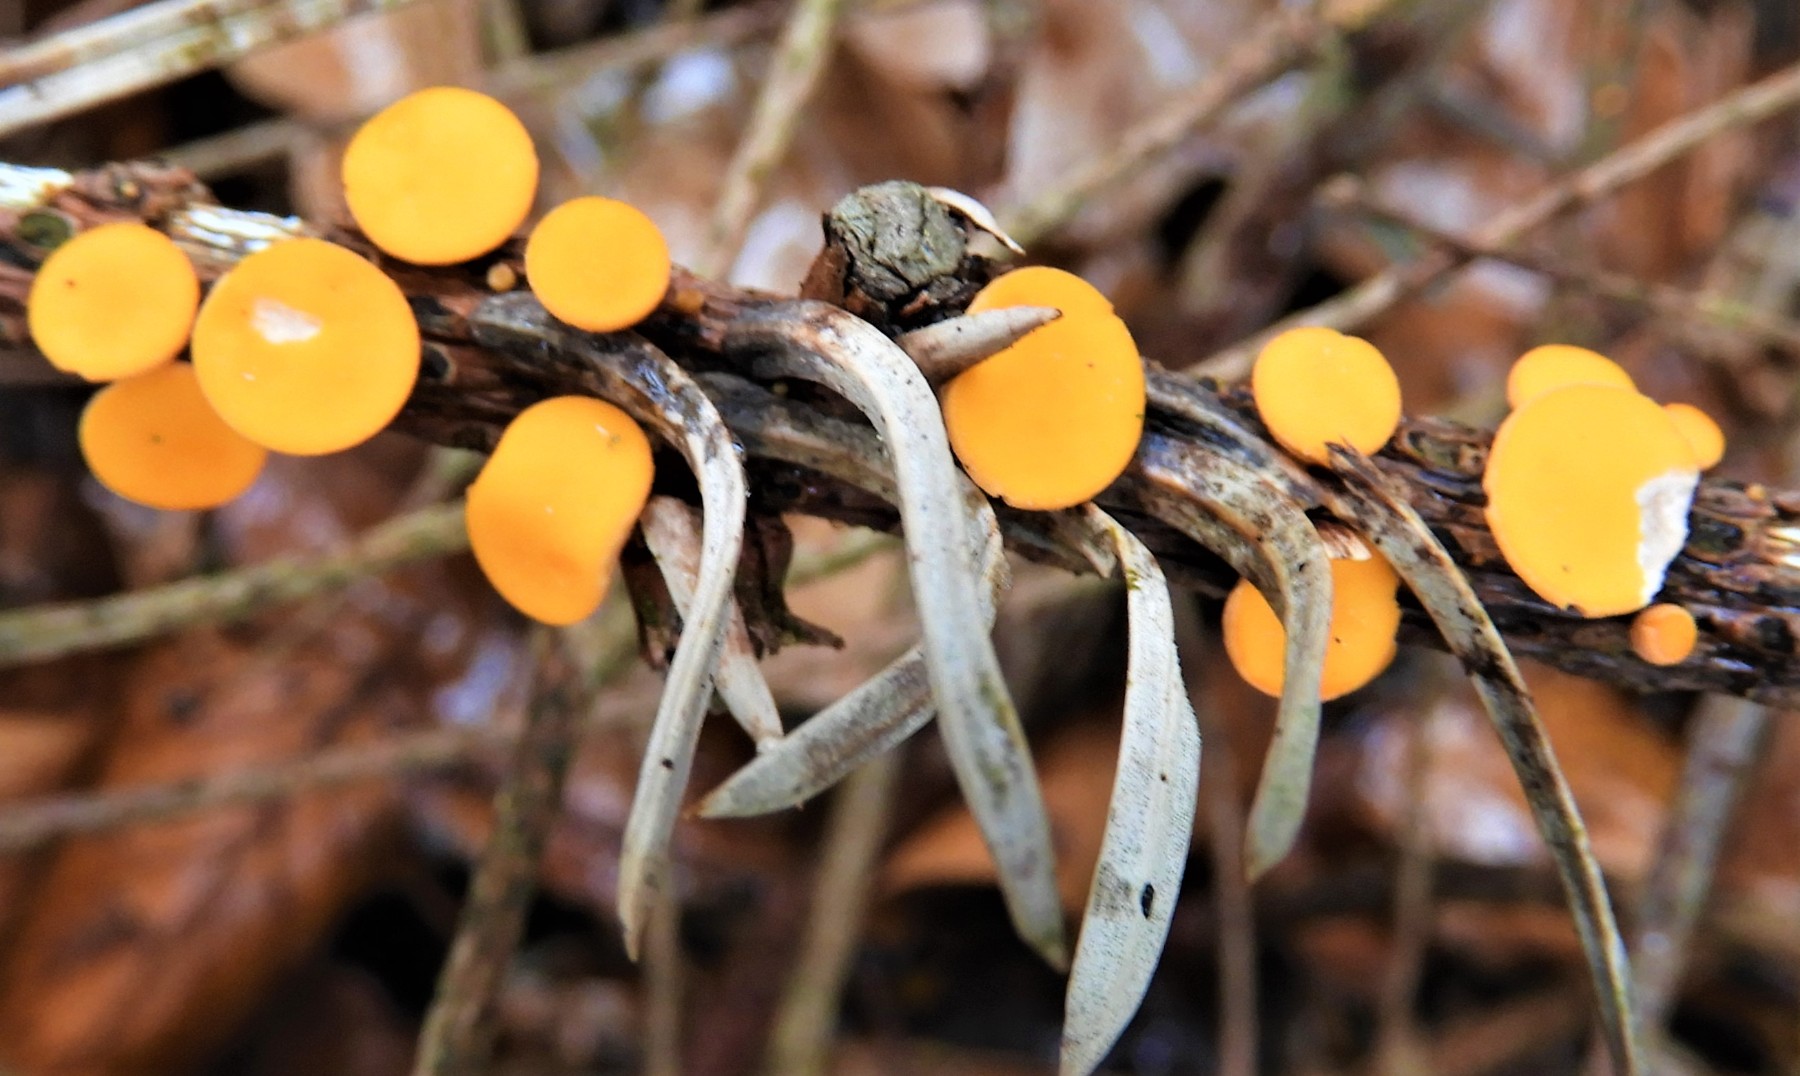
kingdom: Fungi
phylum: Ascomycota
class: Pezizomycetes
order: Pezizales
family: Sarcoscyphaceae
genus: Pithya
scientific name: Pithya vulgaris
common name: stor dukatbæger
